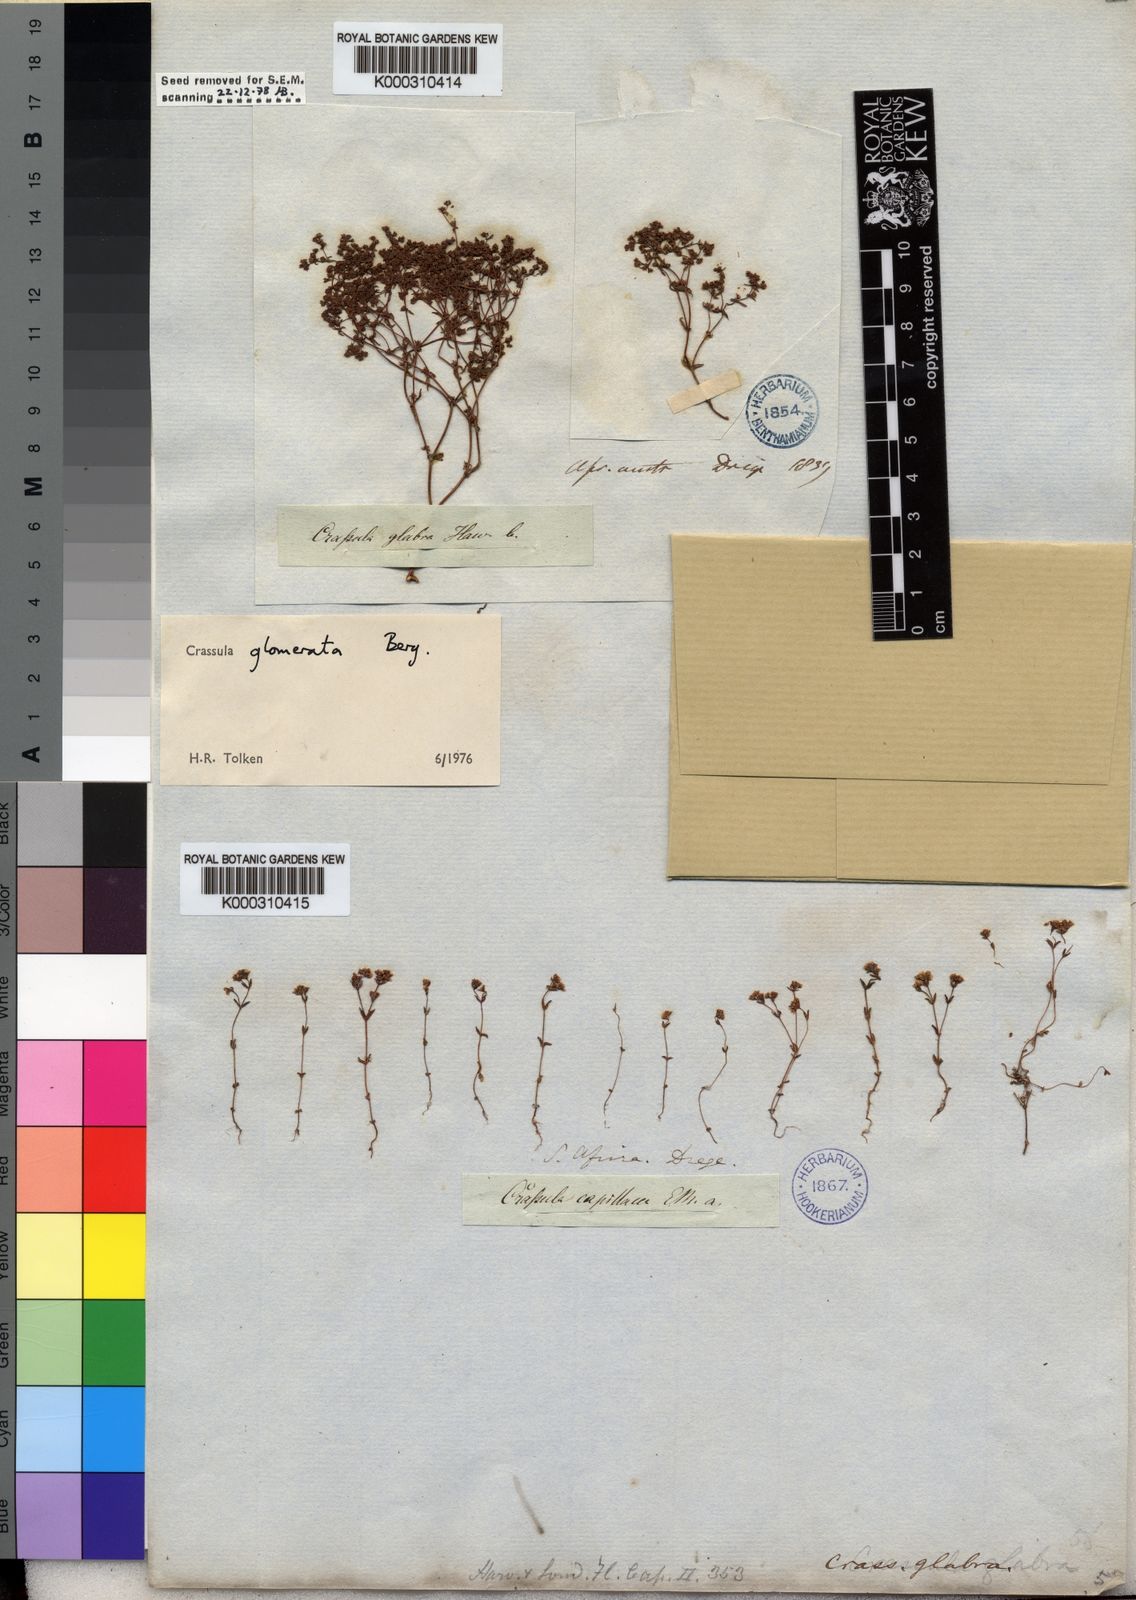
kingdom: Plantae
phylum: Tracheophyta
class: Magnoliopsida
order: Saxifragales
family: Crassulaceae
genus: Crassula
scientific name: Crassula glomerata
